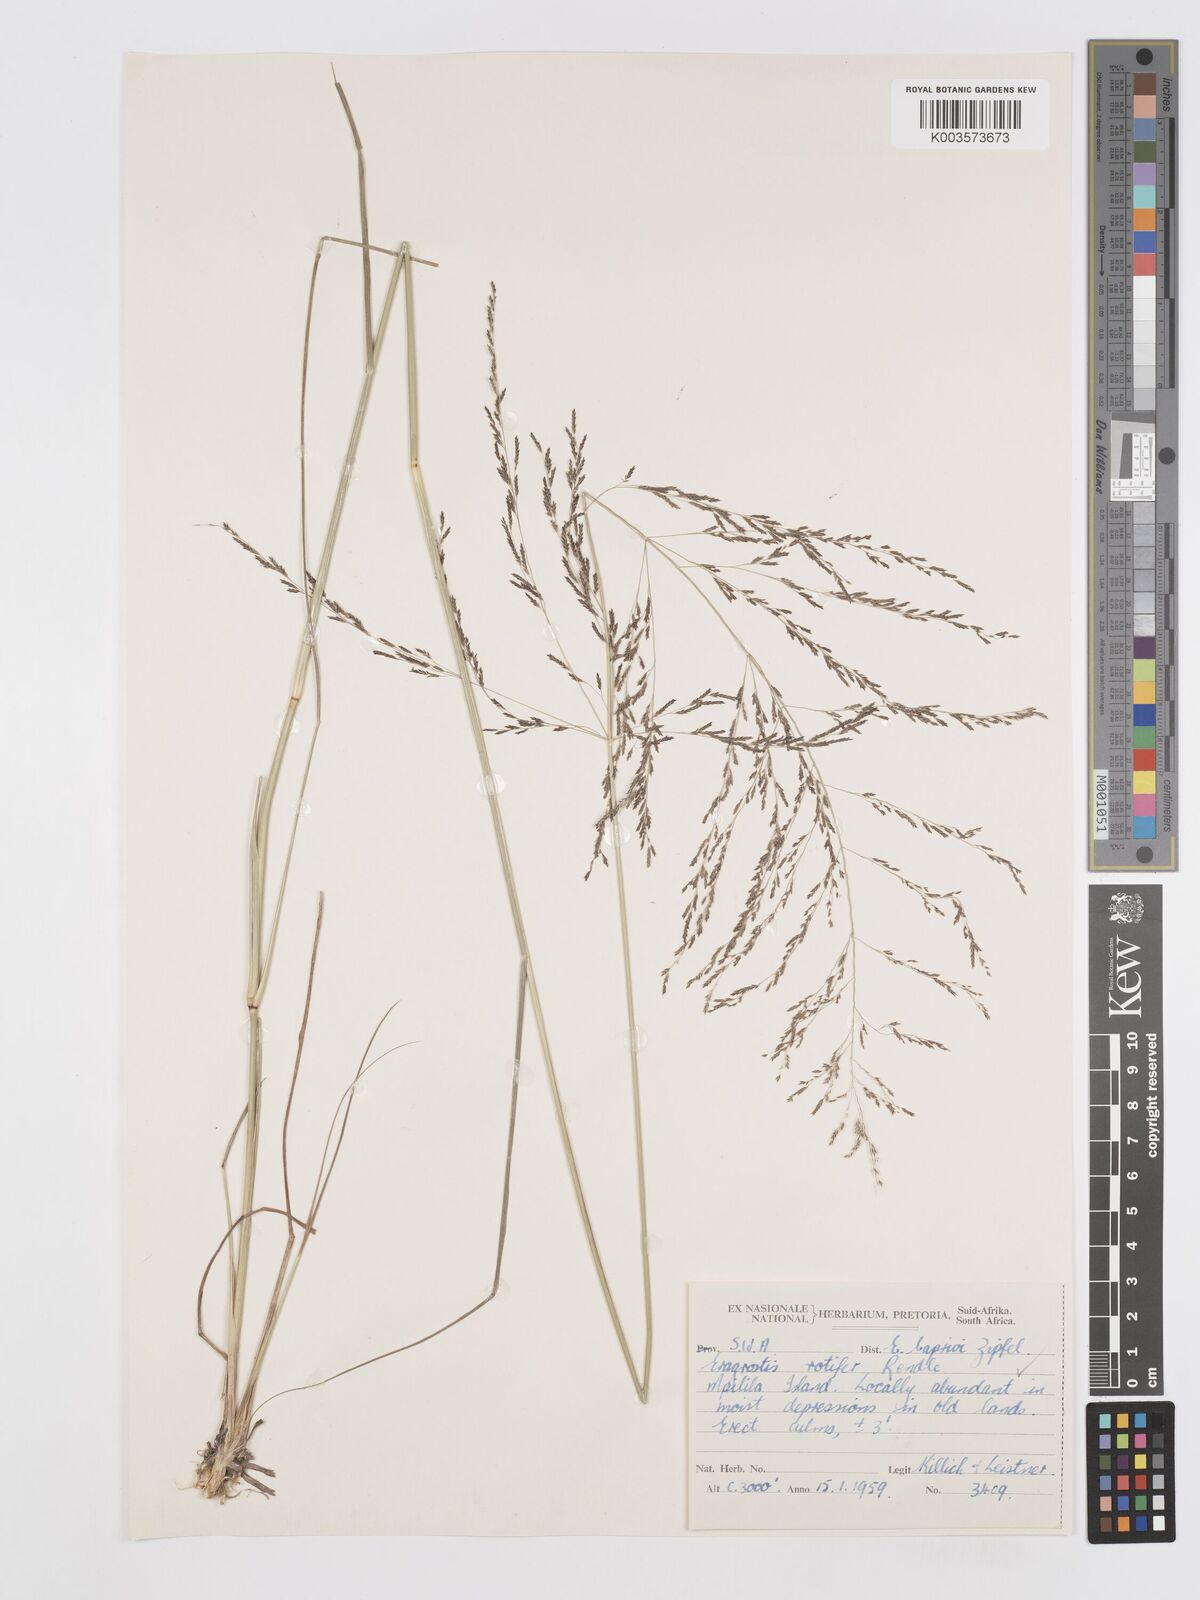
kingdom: Plantae
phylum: Tracheophyta
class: Liliopsida
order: Poales
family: Poaceae
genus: Eragrostis
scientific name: Eragrostis rotifer
